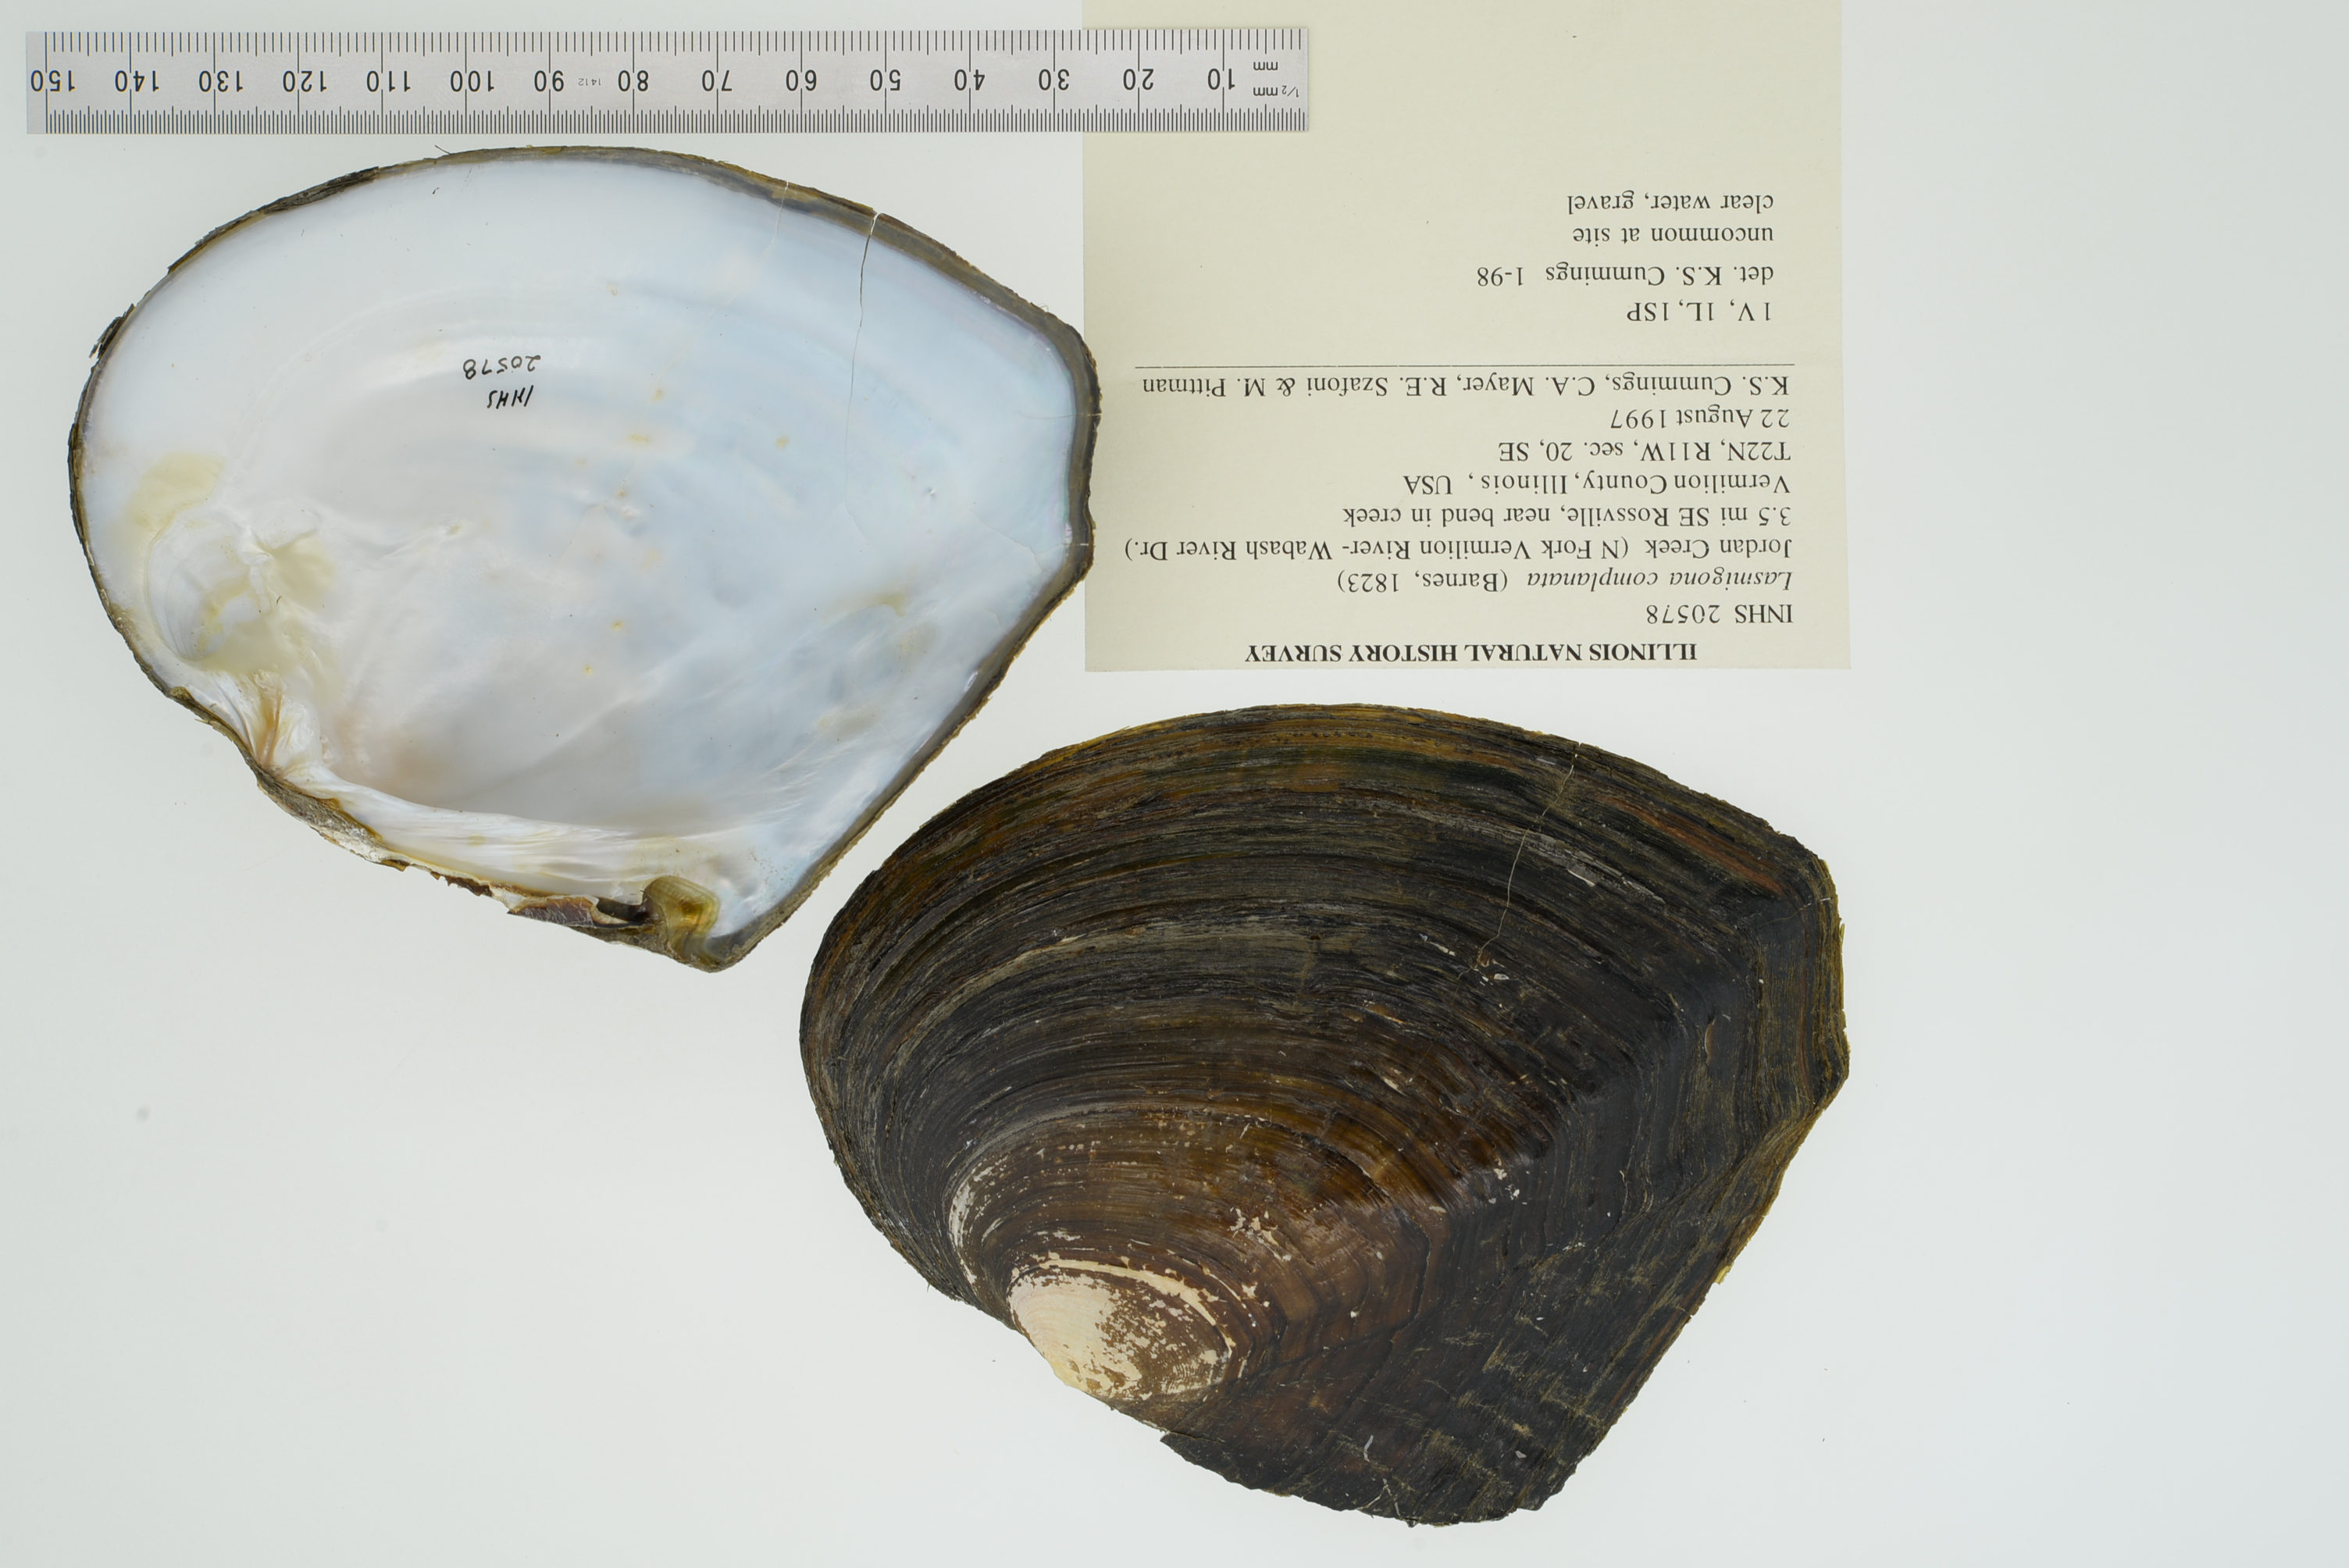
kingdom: Animalia
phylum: Mollusca
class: Bivalvia
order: Unionida
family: Unionidae
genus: Lasmigona
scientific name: Lasmigona complanata
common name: White heelsplitter
